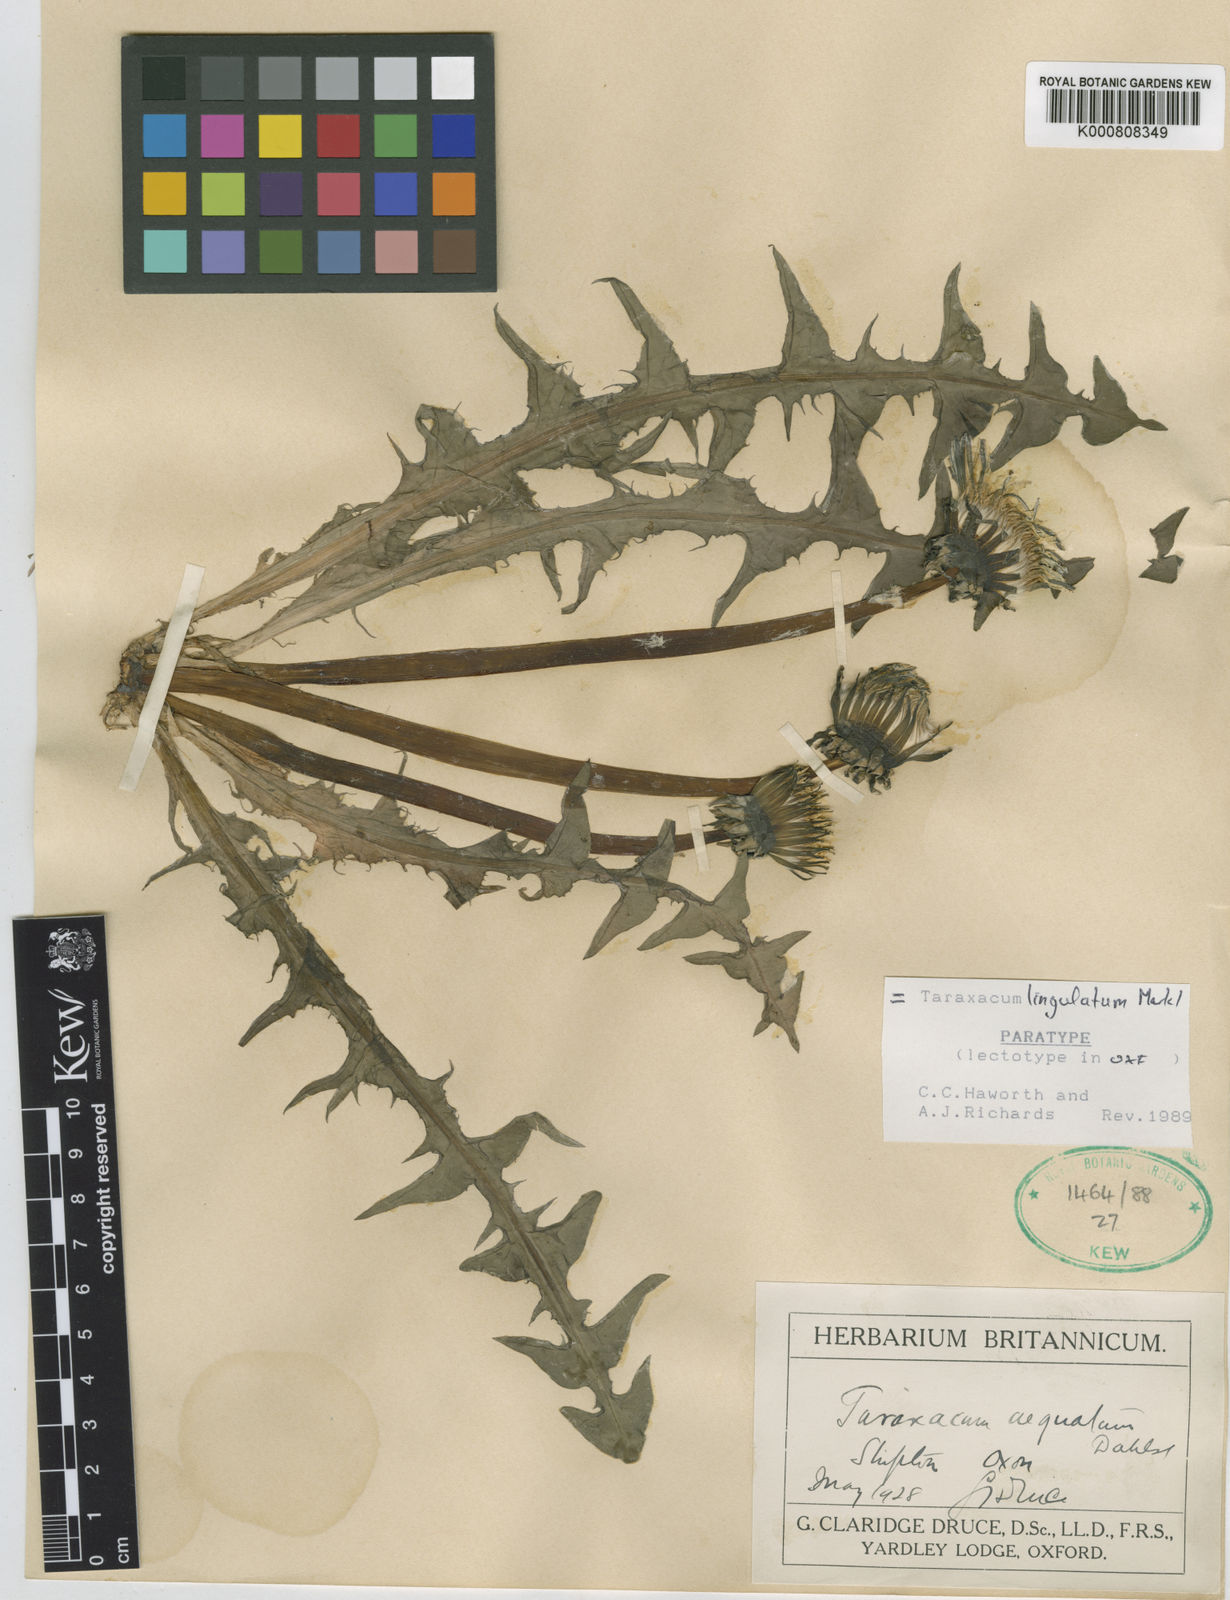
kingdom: Plantae
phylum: Tracheophyta
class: Magnoliopsida
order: Asterales
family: Asteraceae
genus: Taraxacum
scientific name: Taraxacum lingulatum
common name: Long-bracted dandelion
